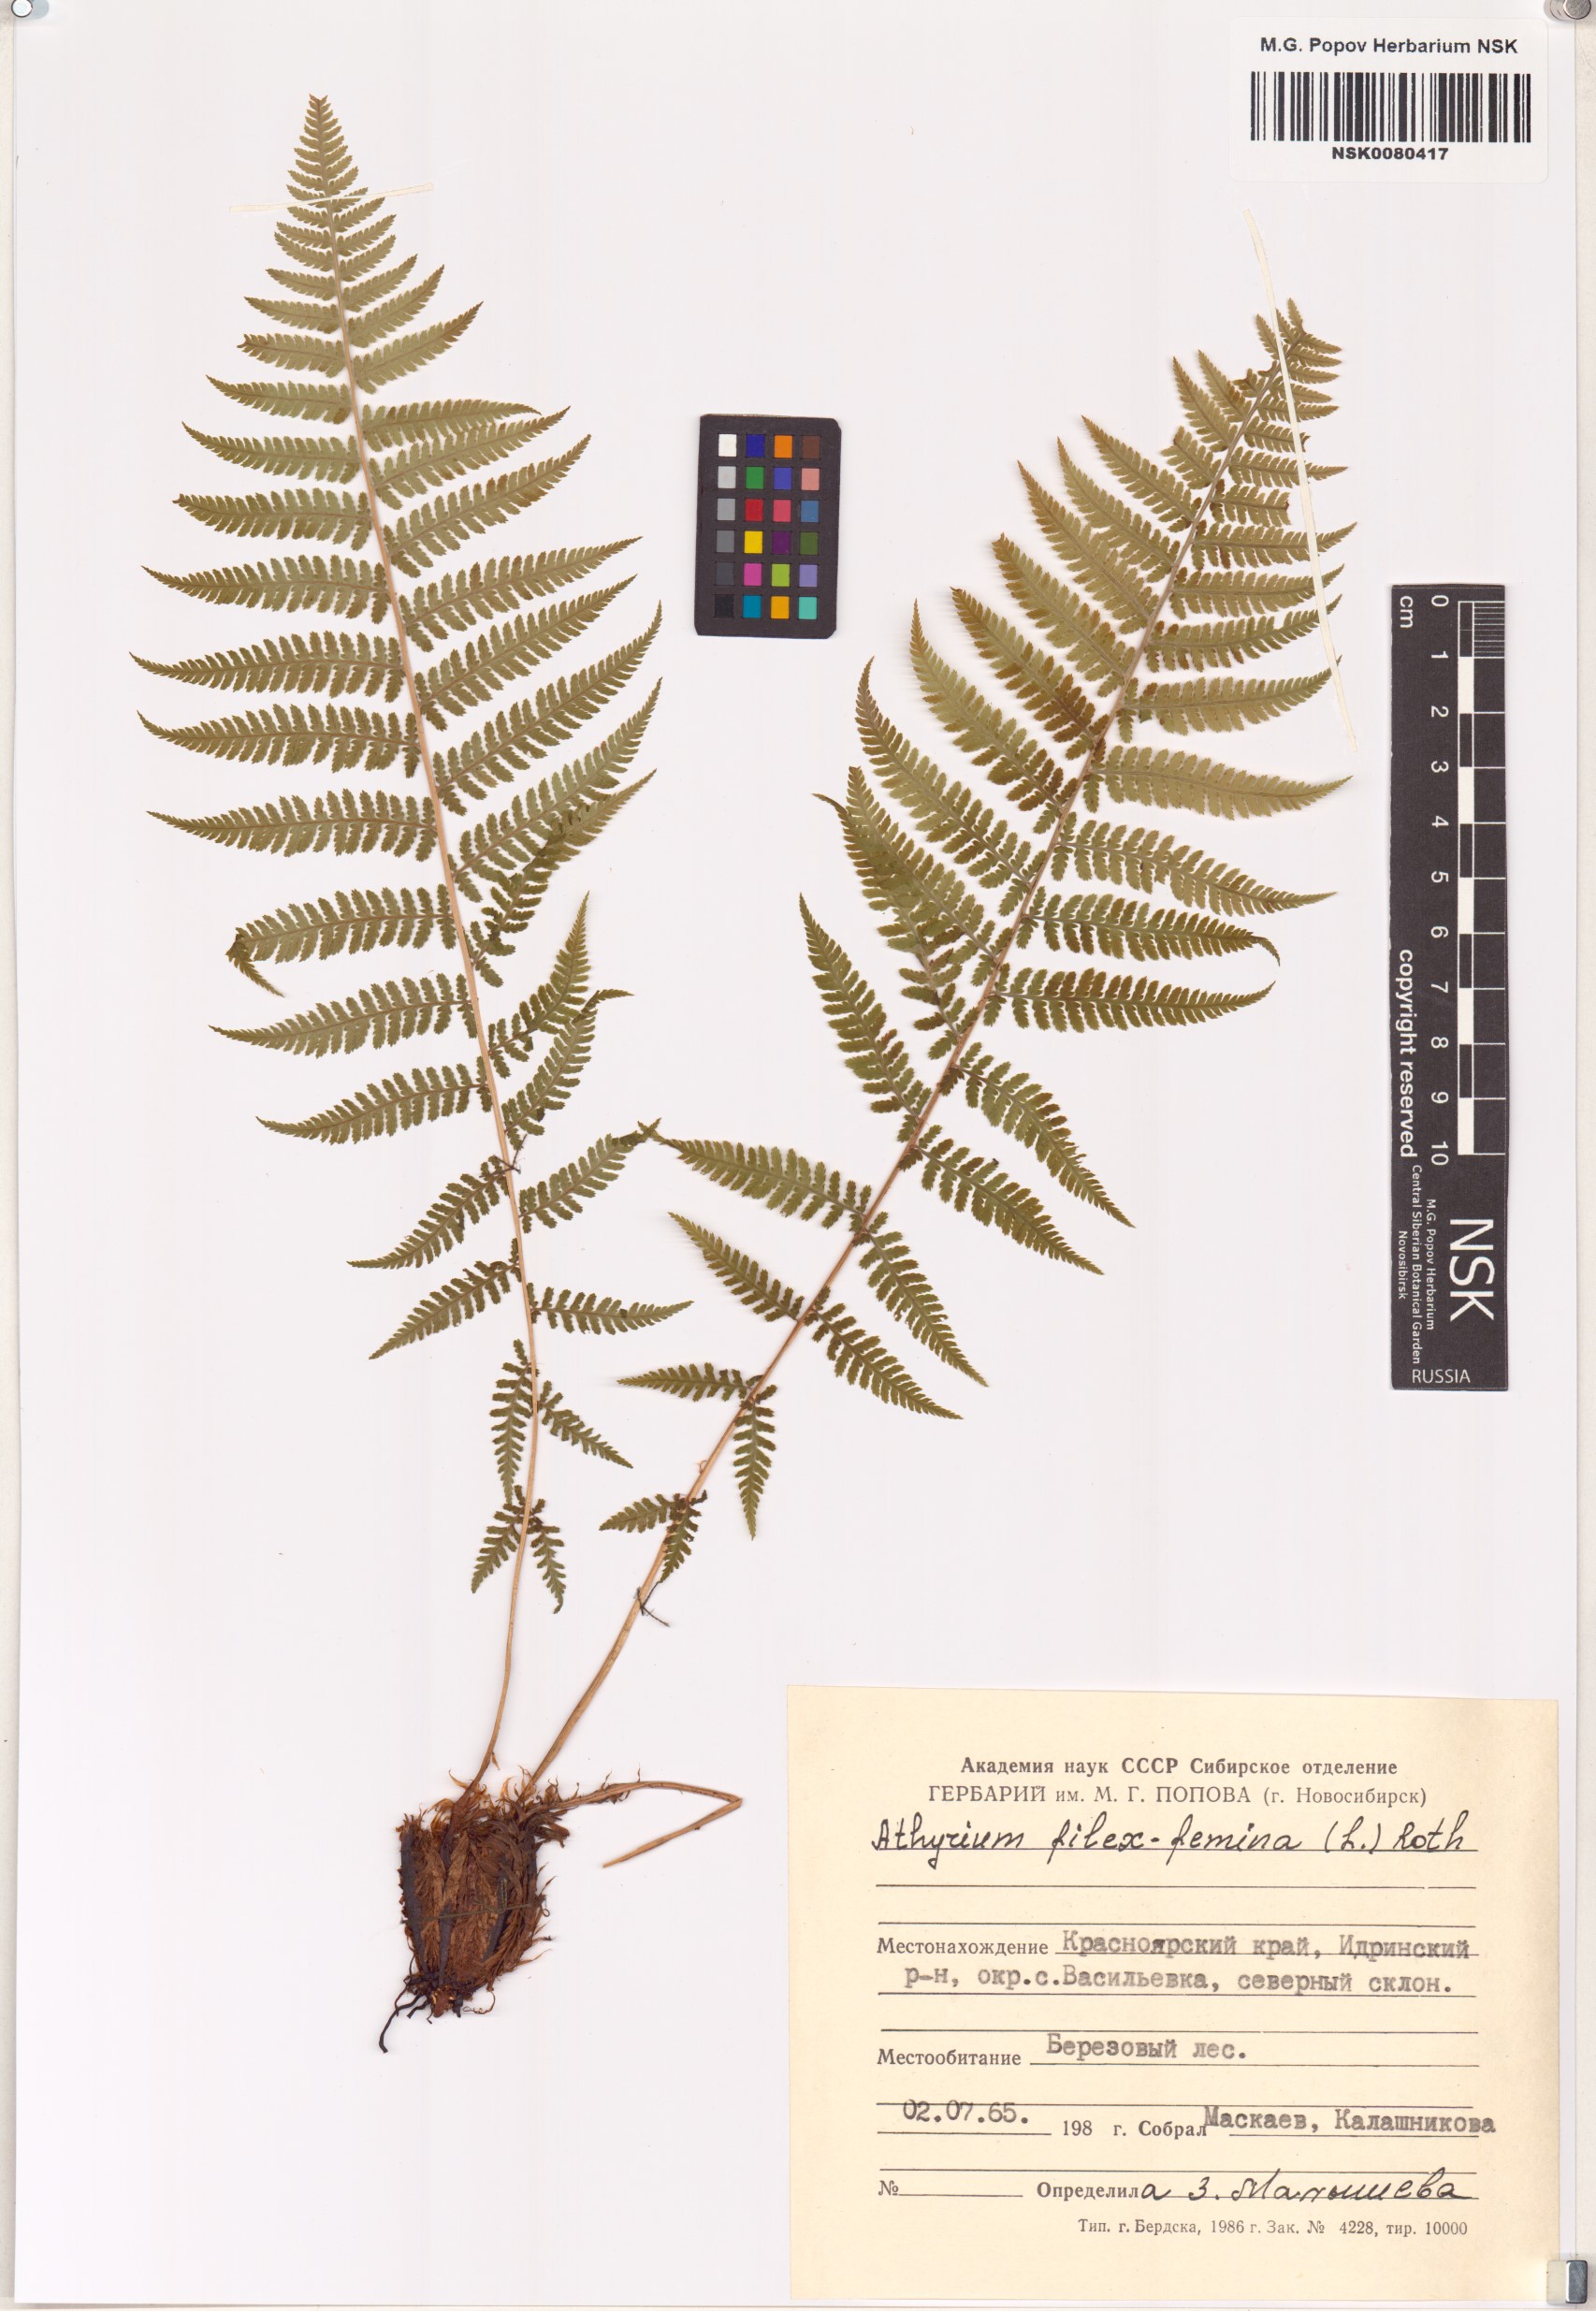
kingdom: Plantae
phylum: Tracheophyta
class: Polypodiopsida
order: Polypodiales
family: Athyriaceae
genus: Athyrium
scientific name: Athyrium filix-femina
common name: Lady fern
